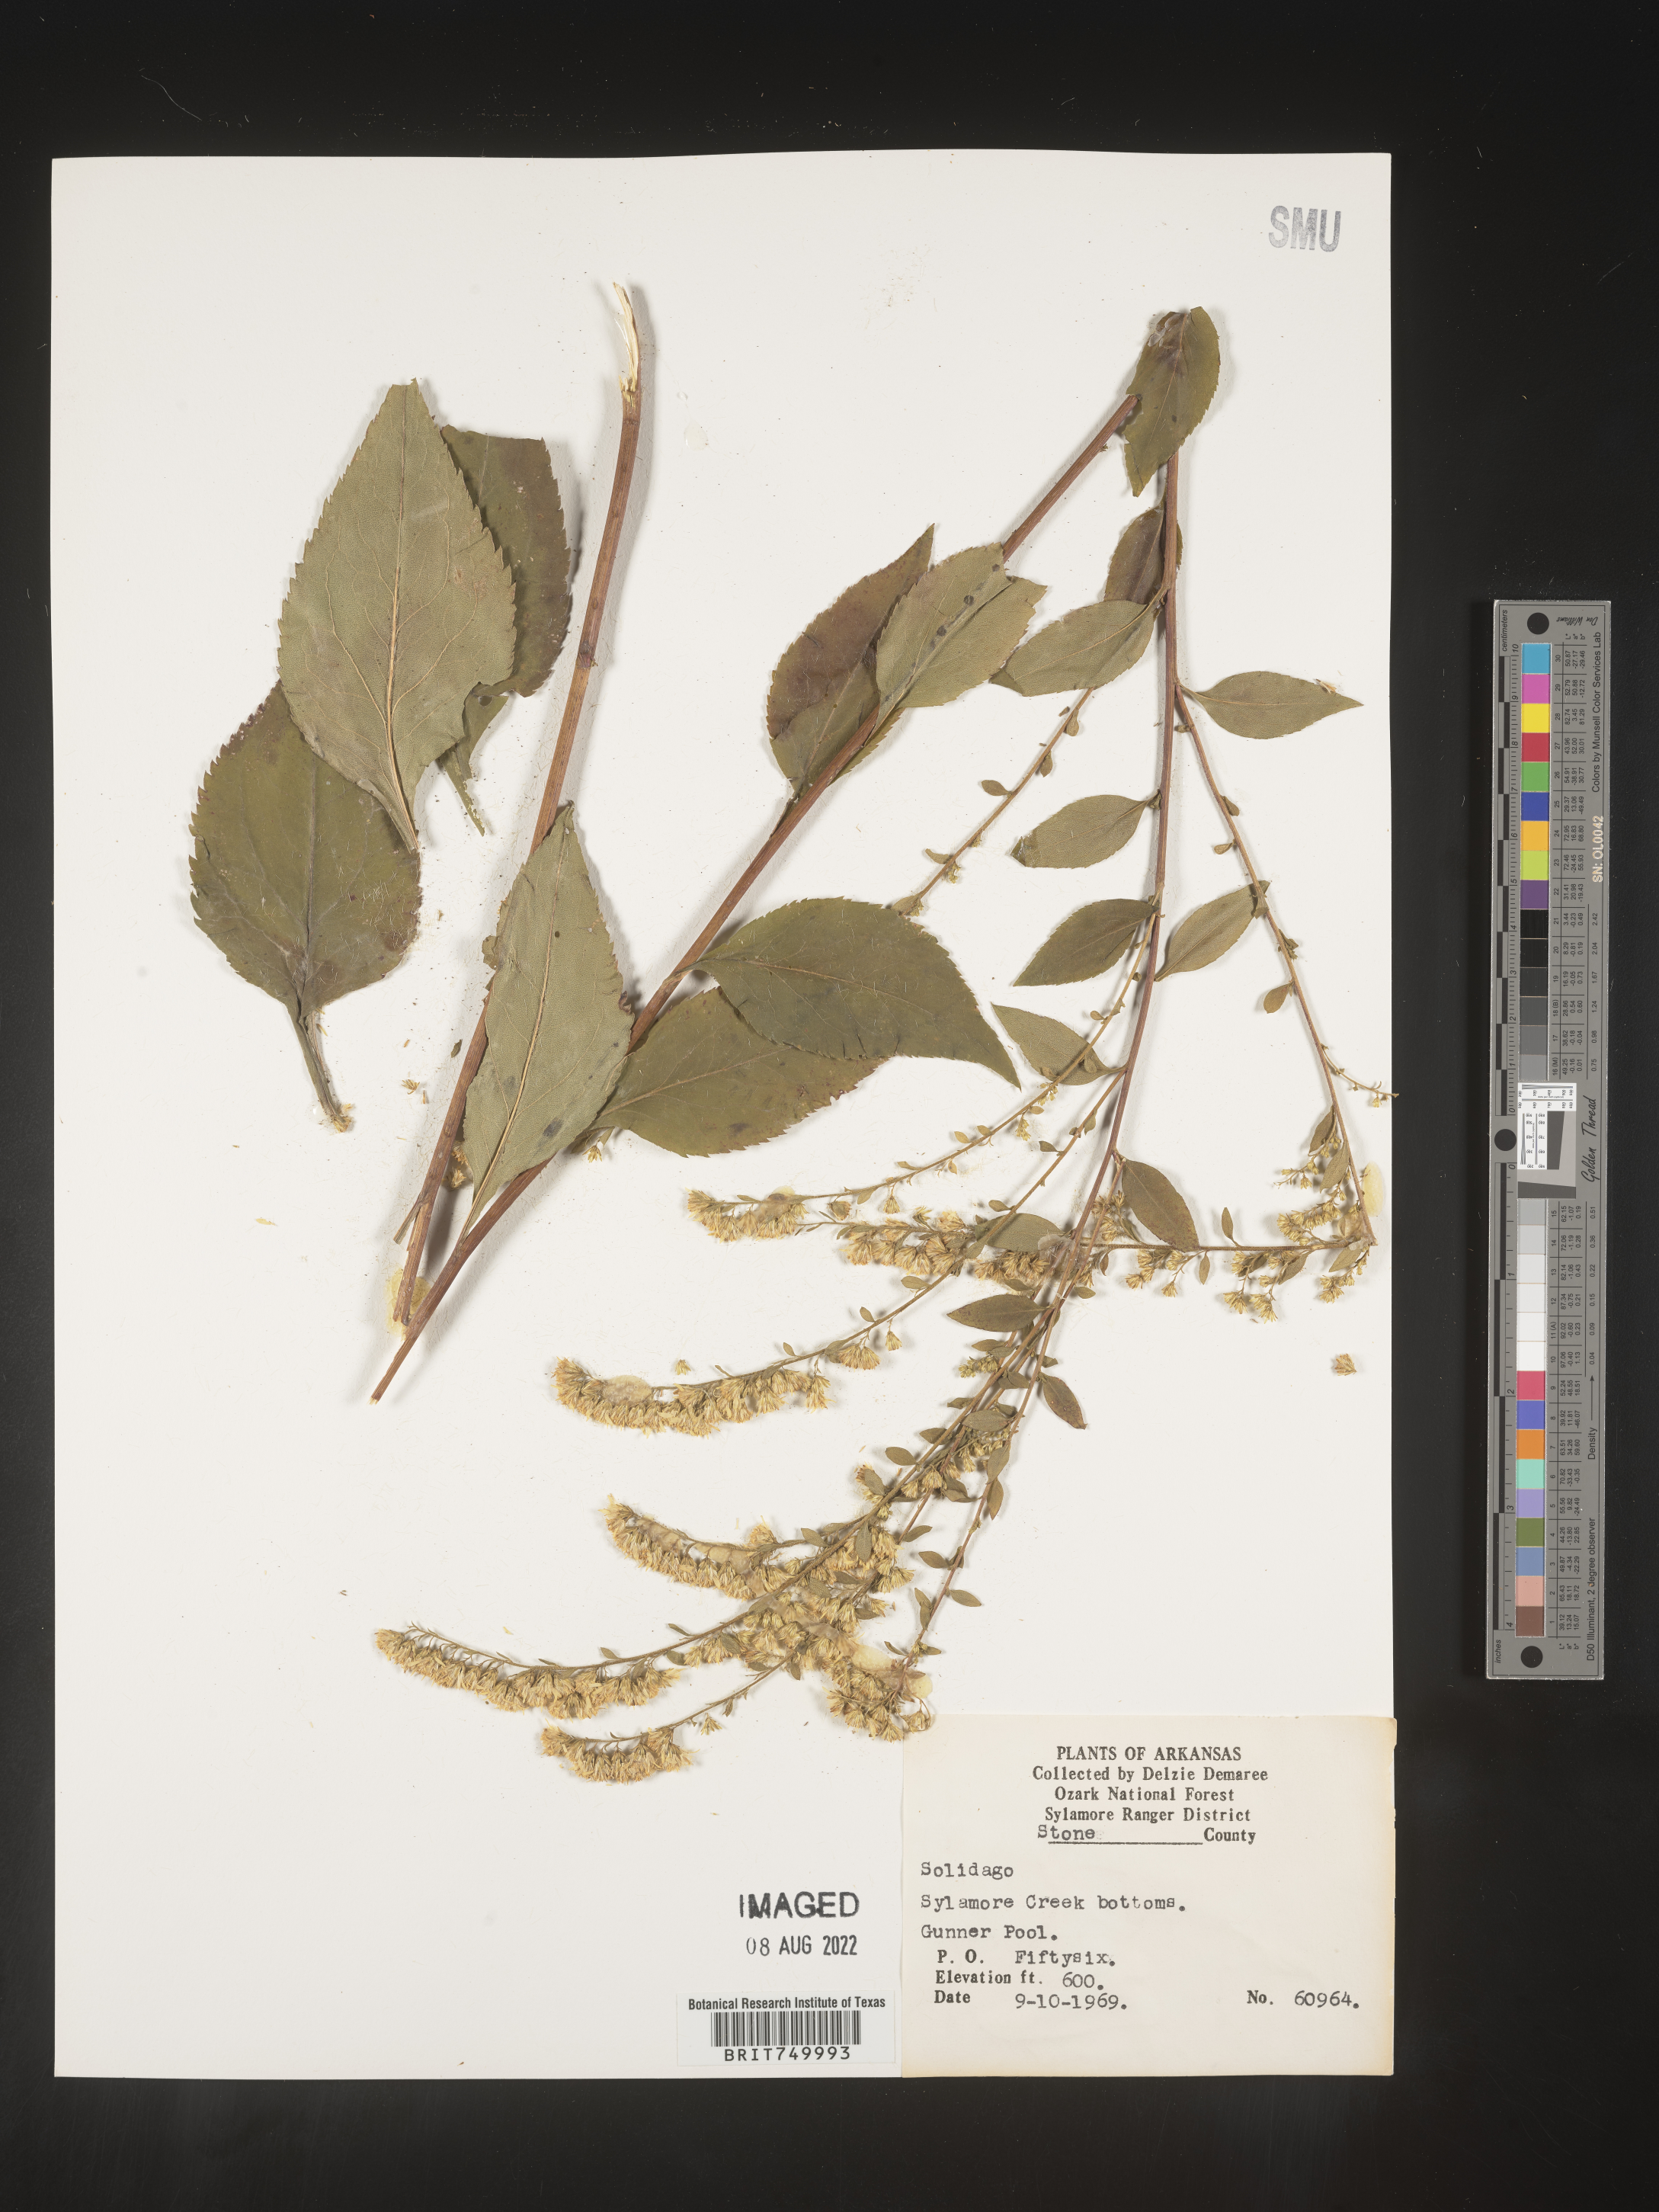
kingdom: Plantae
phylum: Tracheophyta
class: Magnoliopsida
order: Asterales
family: Asteraceae
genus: Solidago
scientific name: Solidago
